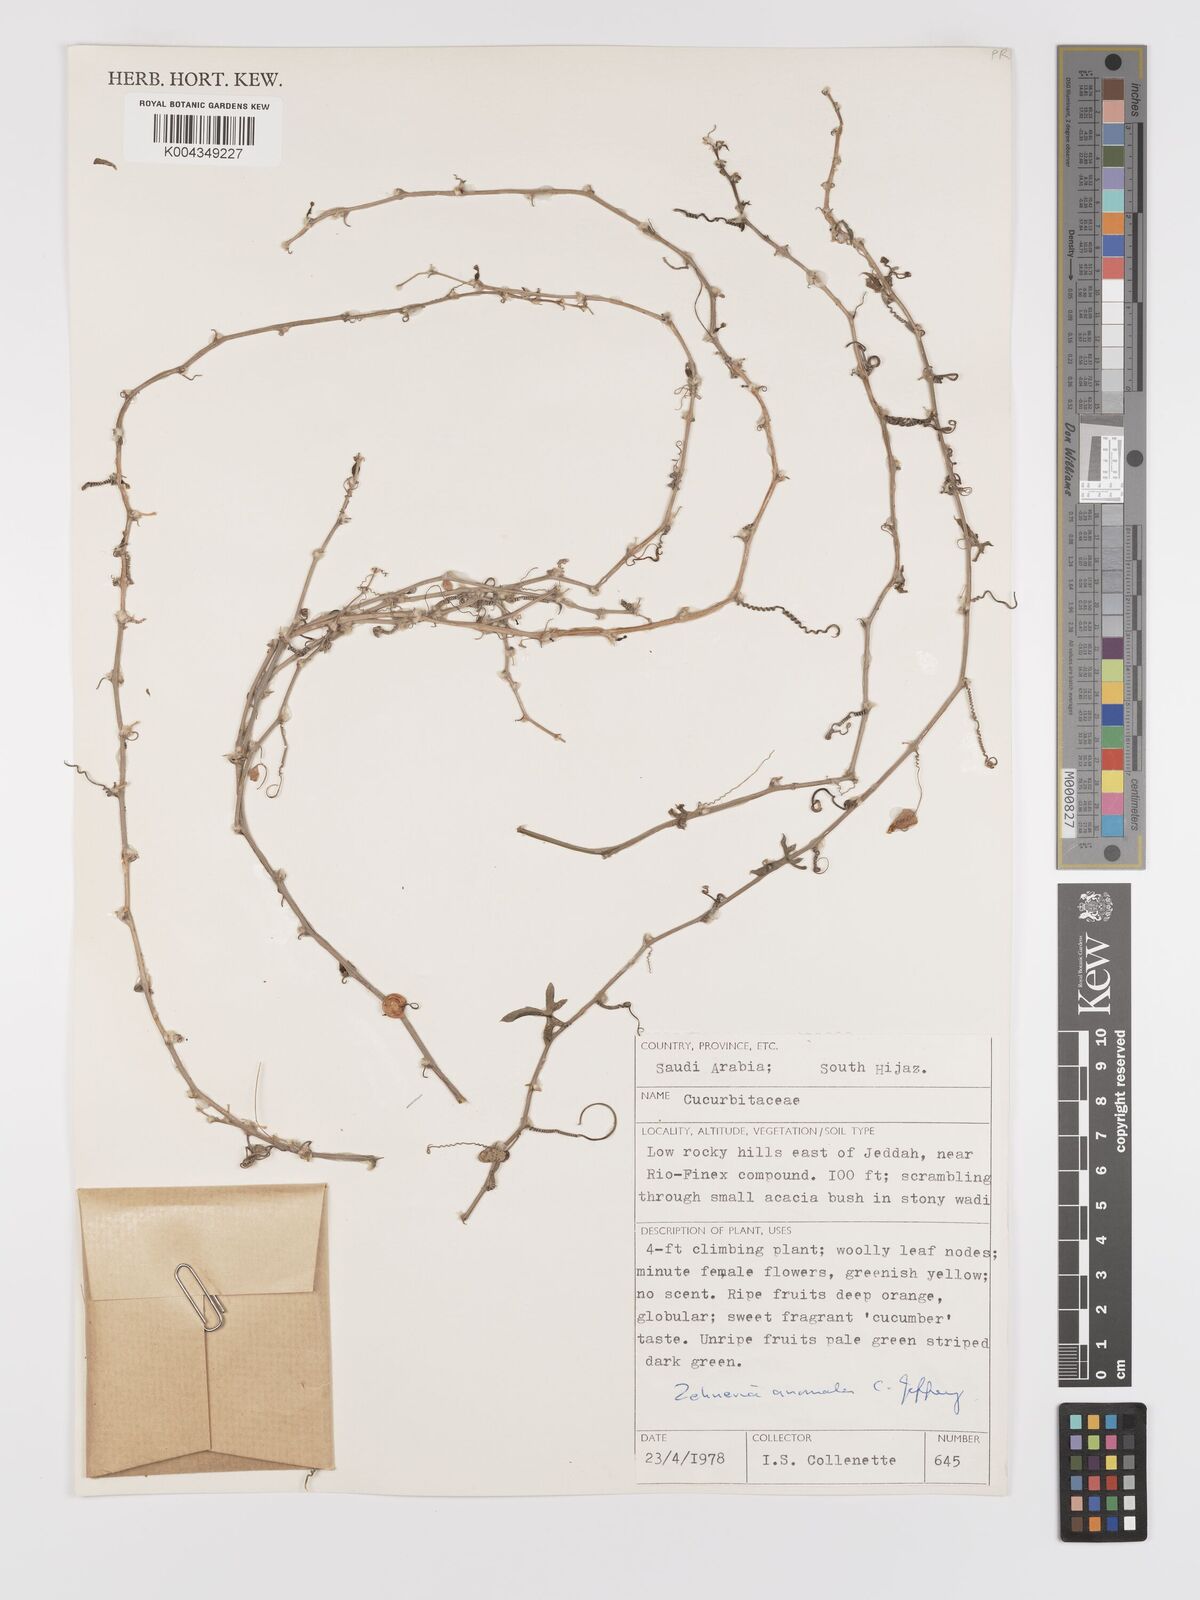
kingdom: Plantae
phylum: Tracheophyta
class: Magnoliopsida
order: Cucurbitales
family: Cucurbitaceae
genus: Zehneria
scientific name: Zehneria anomala
